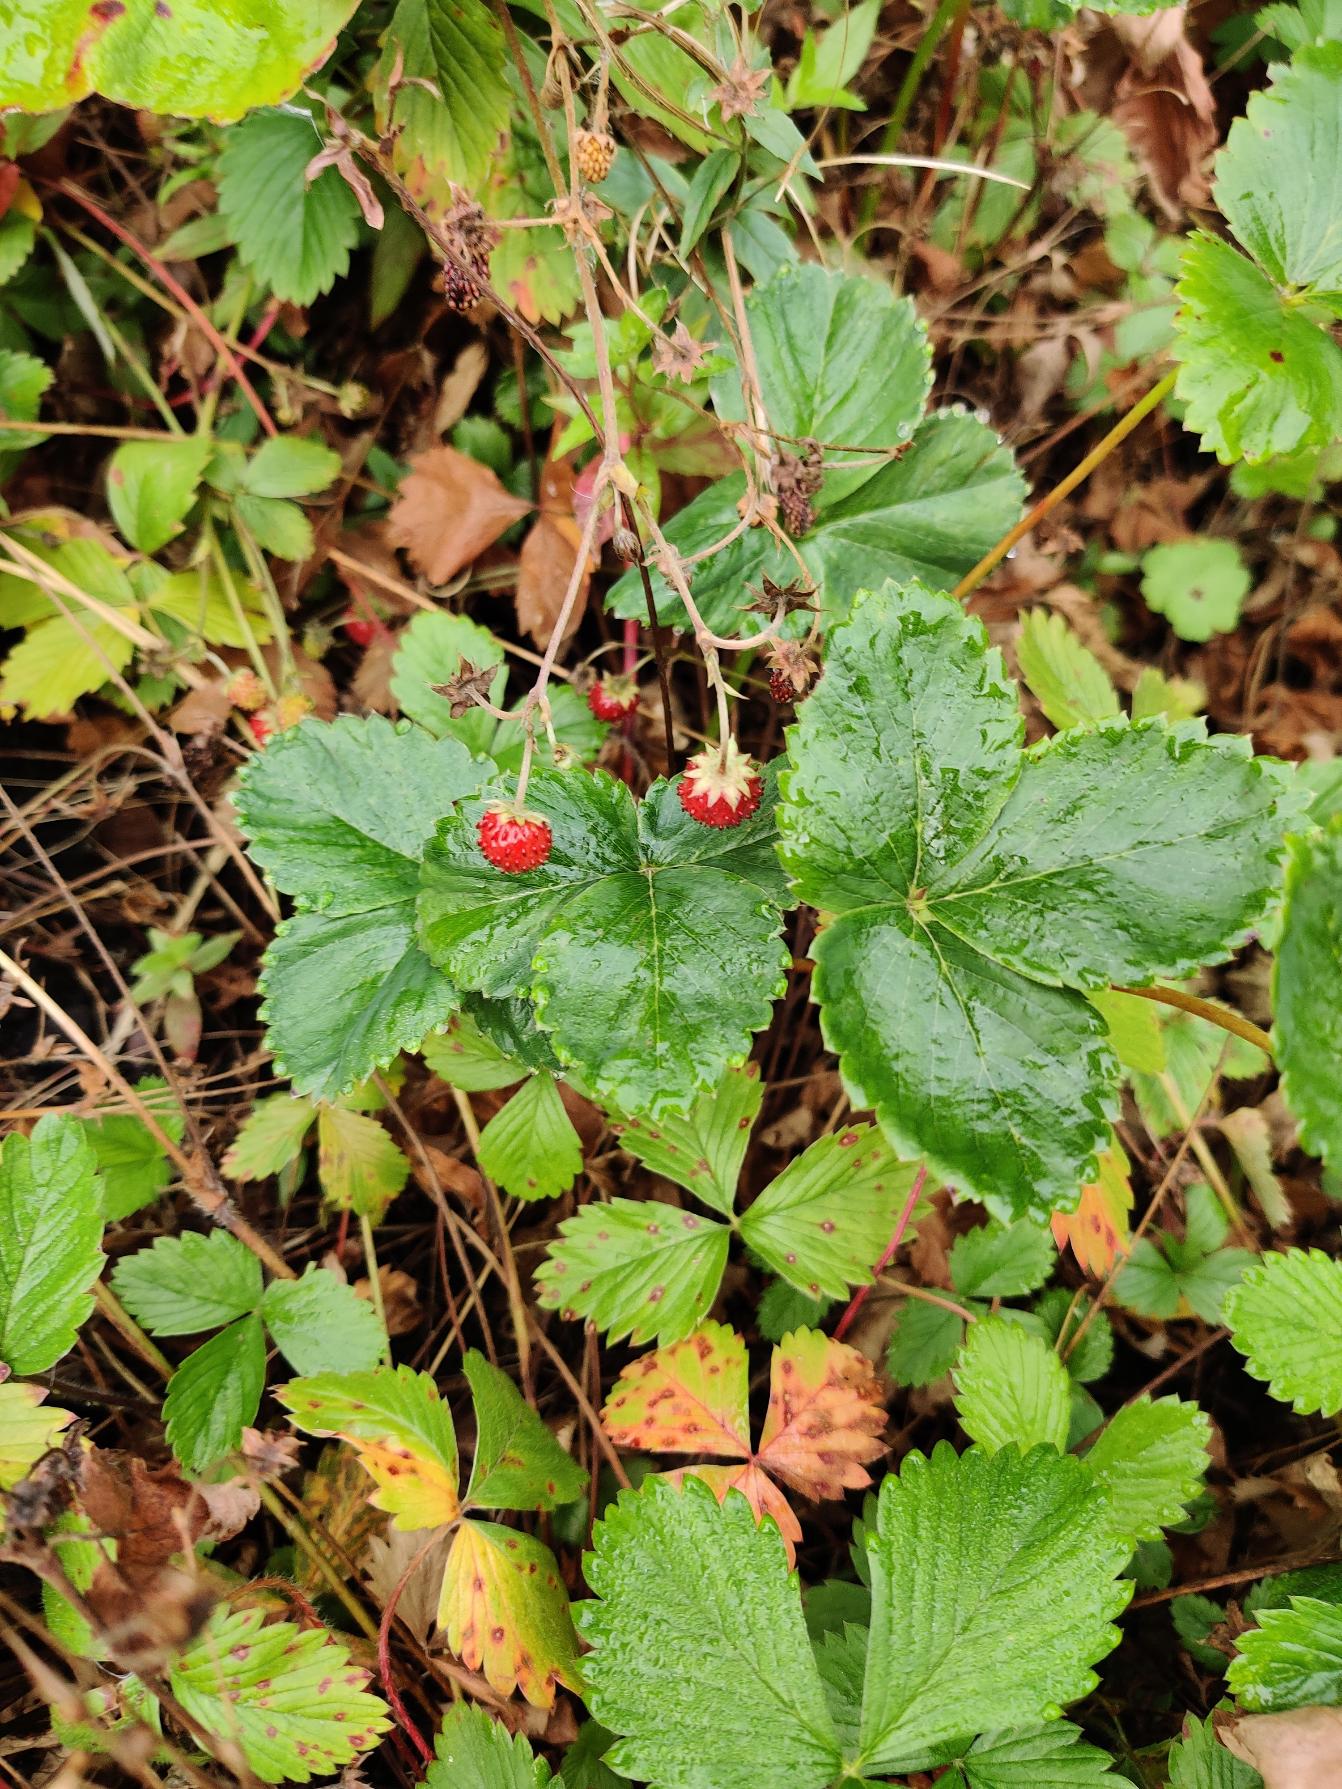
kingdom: Plantae
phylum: Tracheophyta
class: Magnoliopsida
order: Rosales
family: Rosaceae
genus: Fragaria
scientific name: Fragaria vesca
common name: Skov-jordbær
